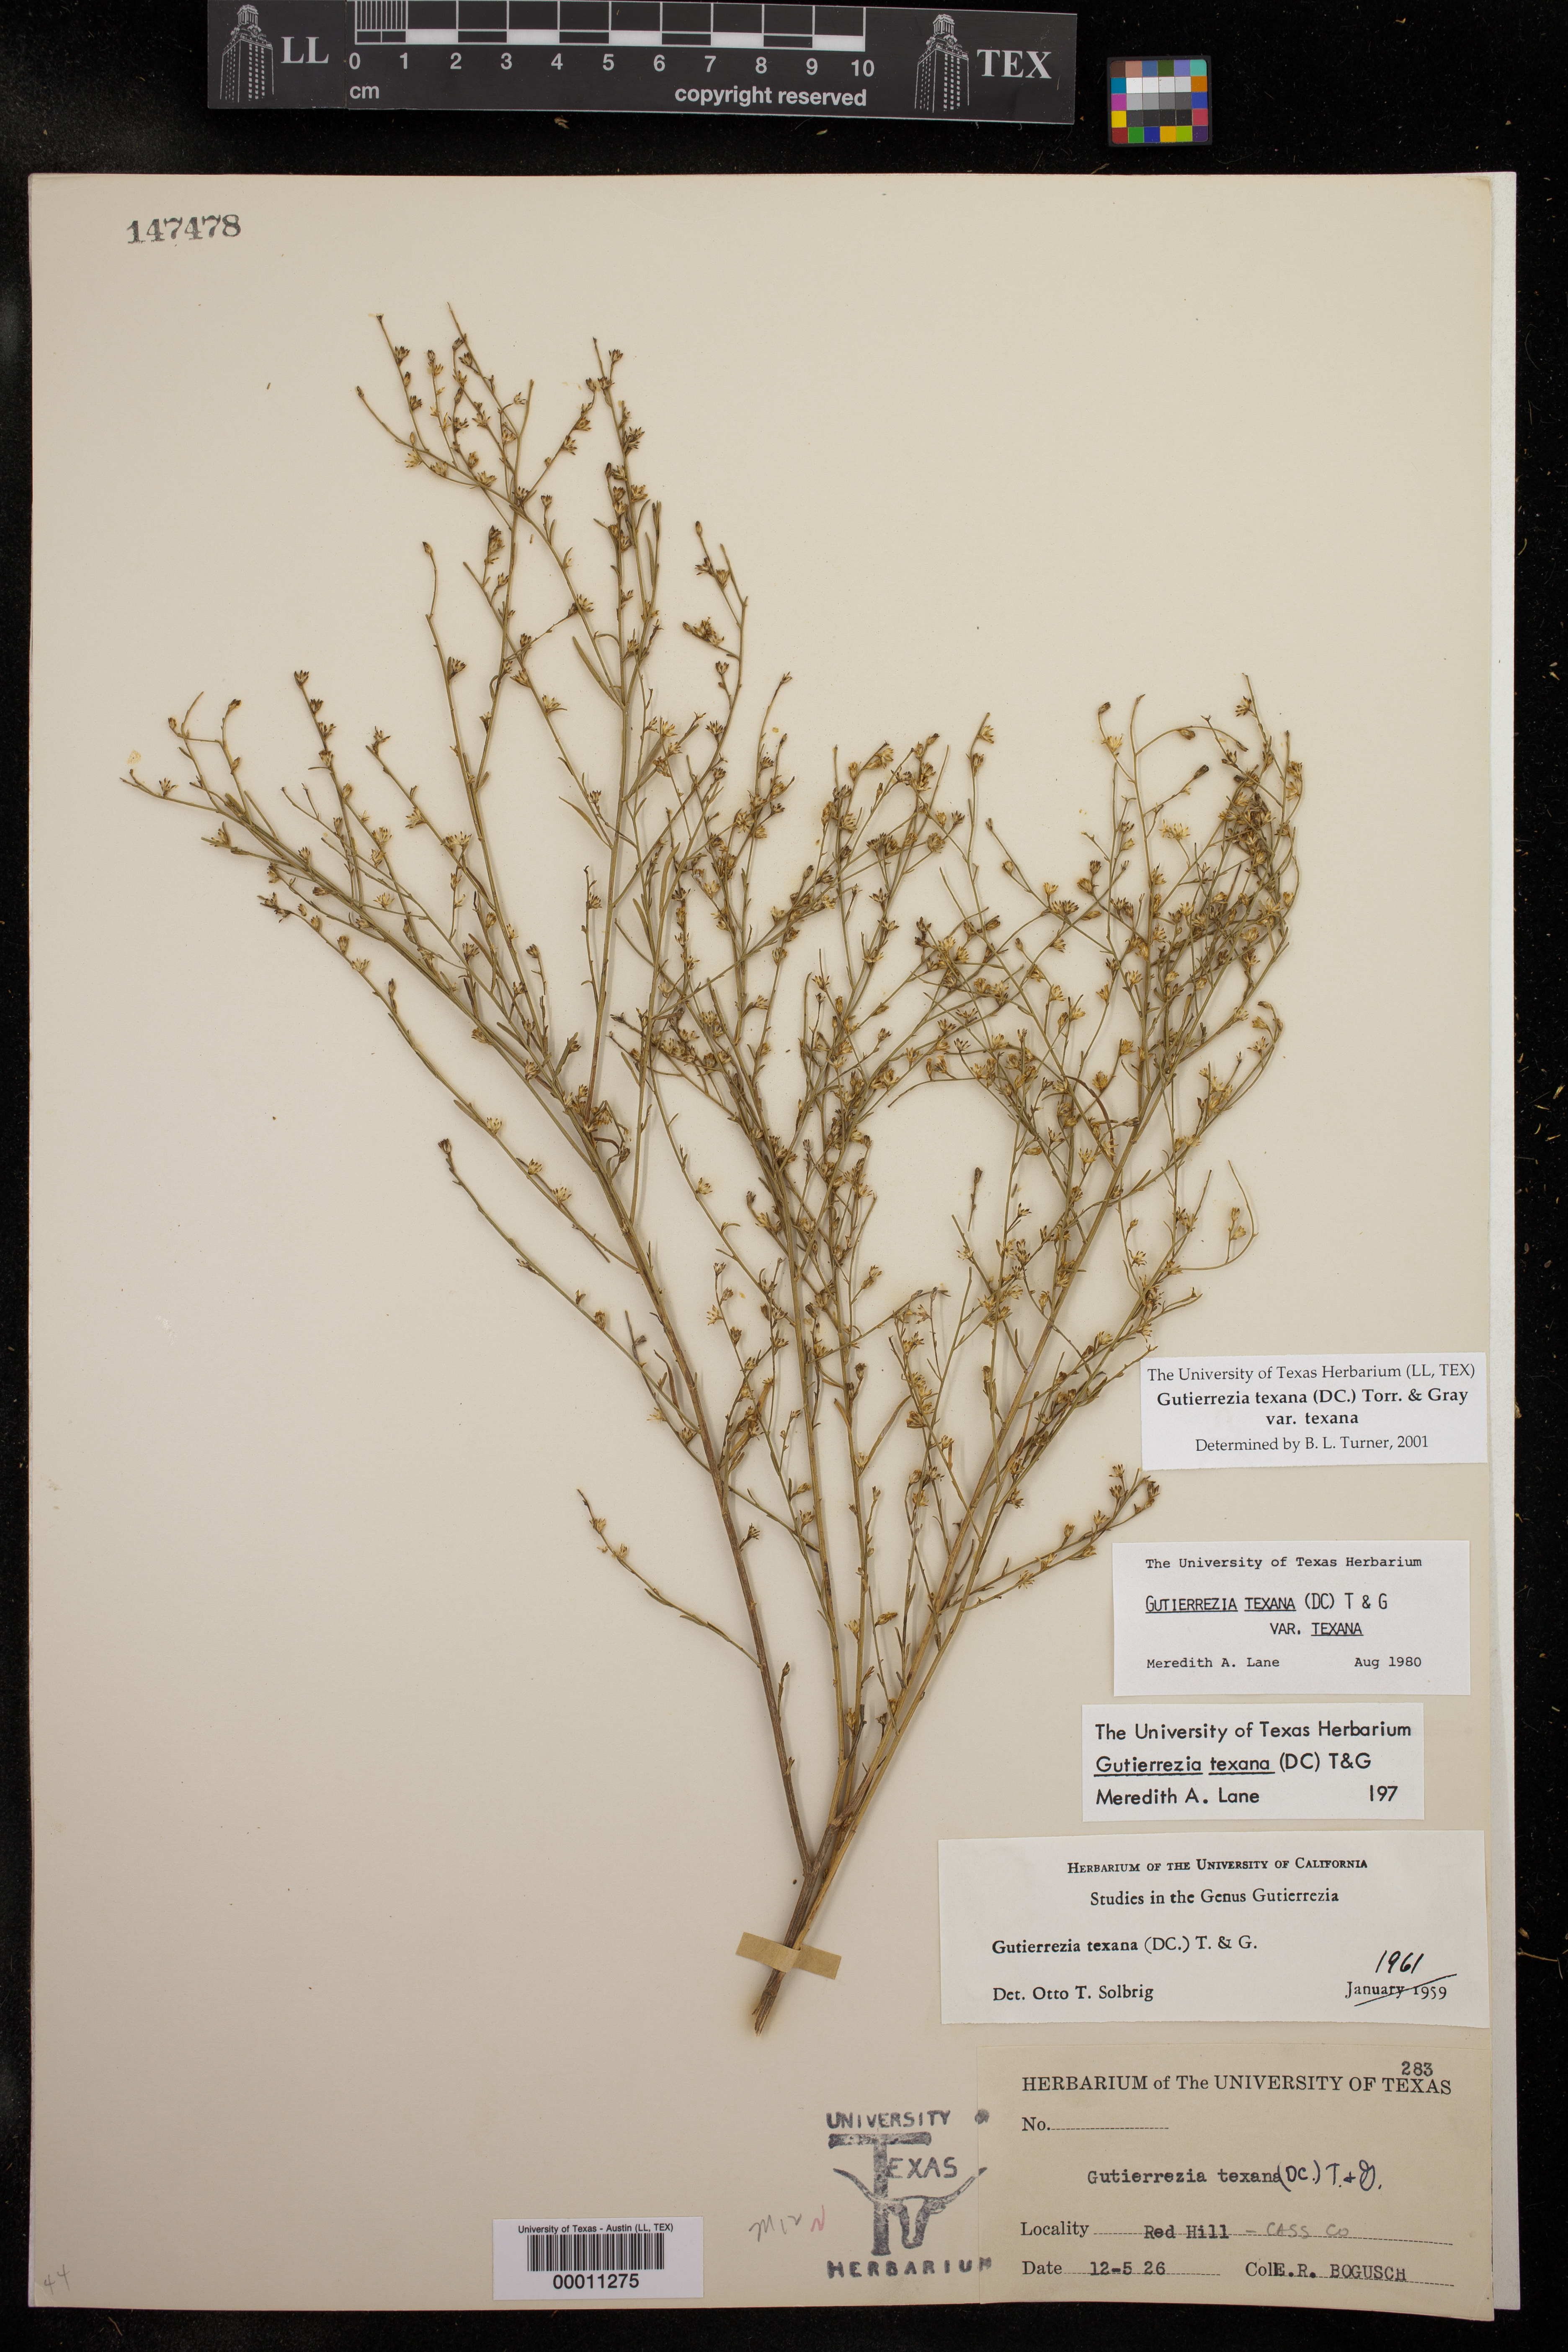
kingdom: Plantae
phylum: Tracheophyta
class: Magnoliopsida
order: Asterales
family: Asteraceae
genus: Gutierrezia
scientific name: Gutierrezia texana
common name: Texas snakeweed
